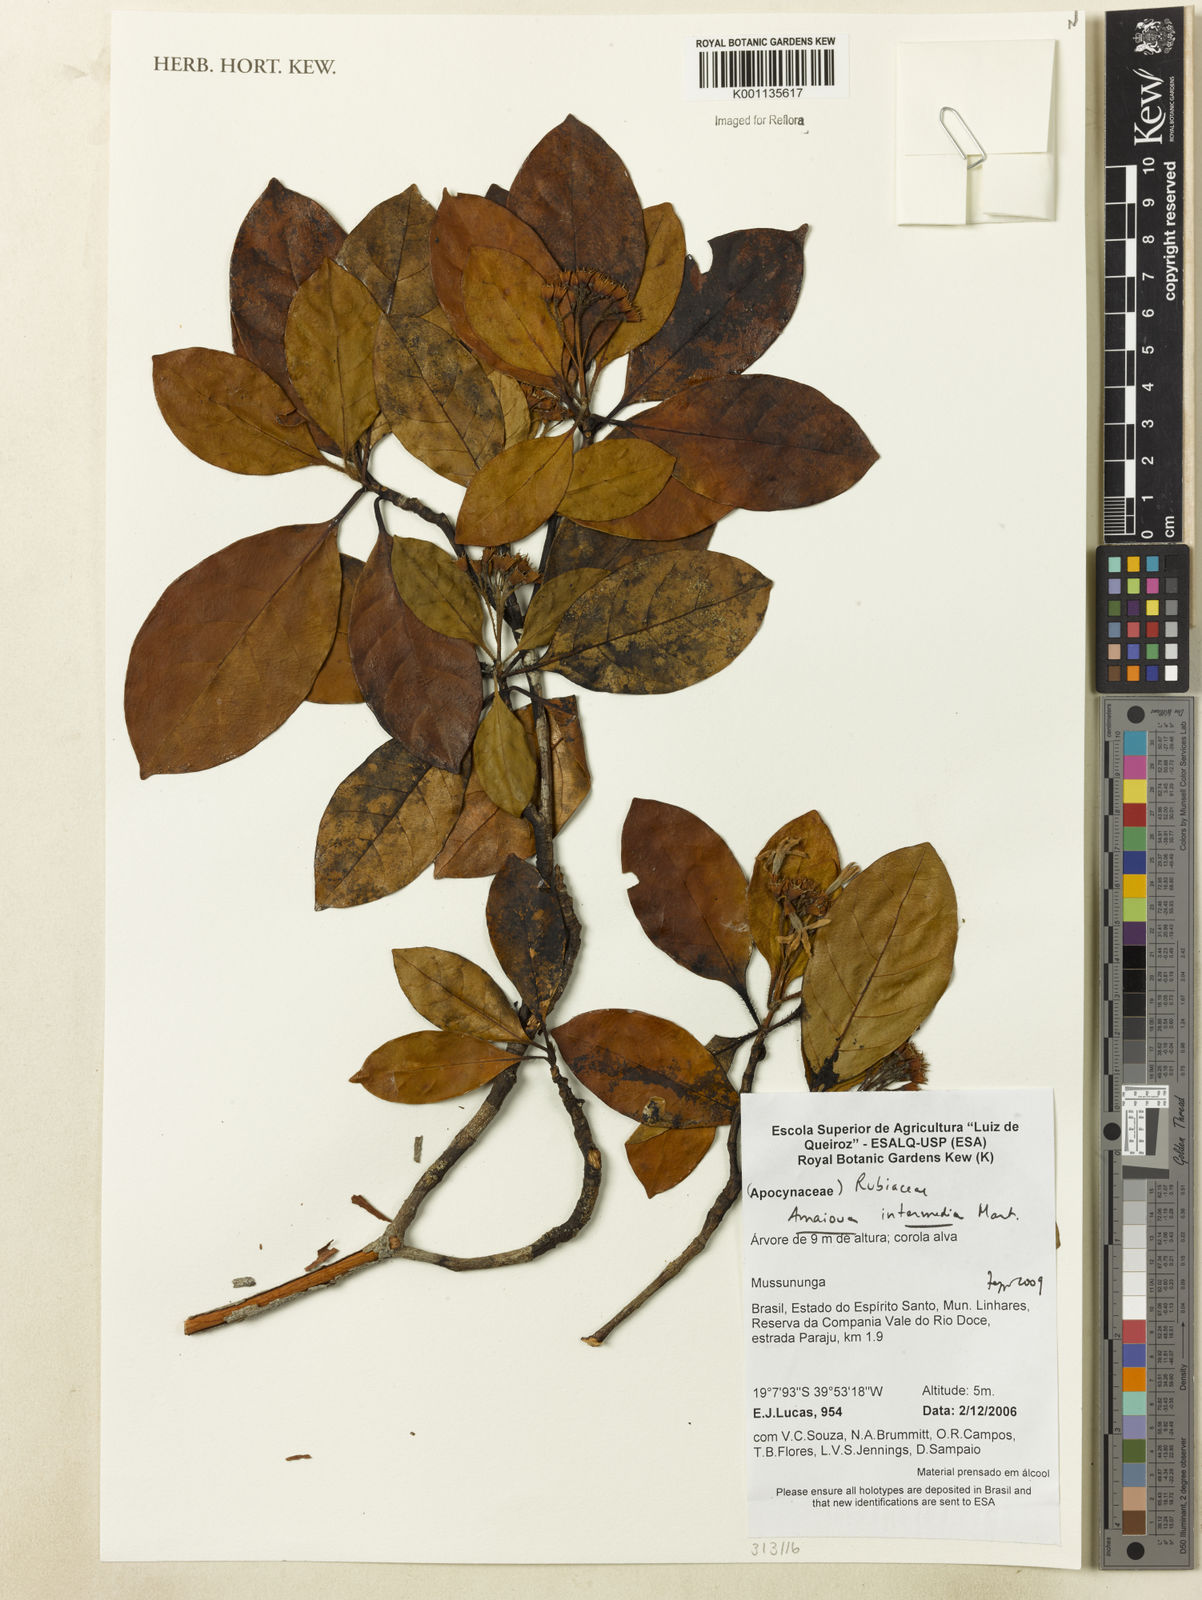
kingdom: Plantae
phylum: Tracheophyta
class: Magnoliopsida
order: Gentianales
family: Rubiaceae
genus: Amaioua
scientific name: Amaioua intermedia
